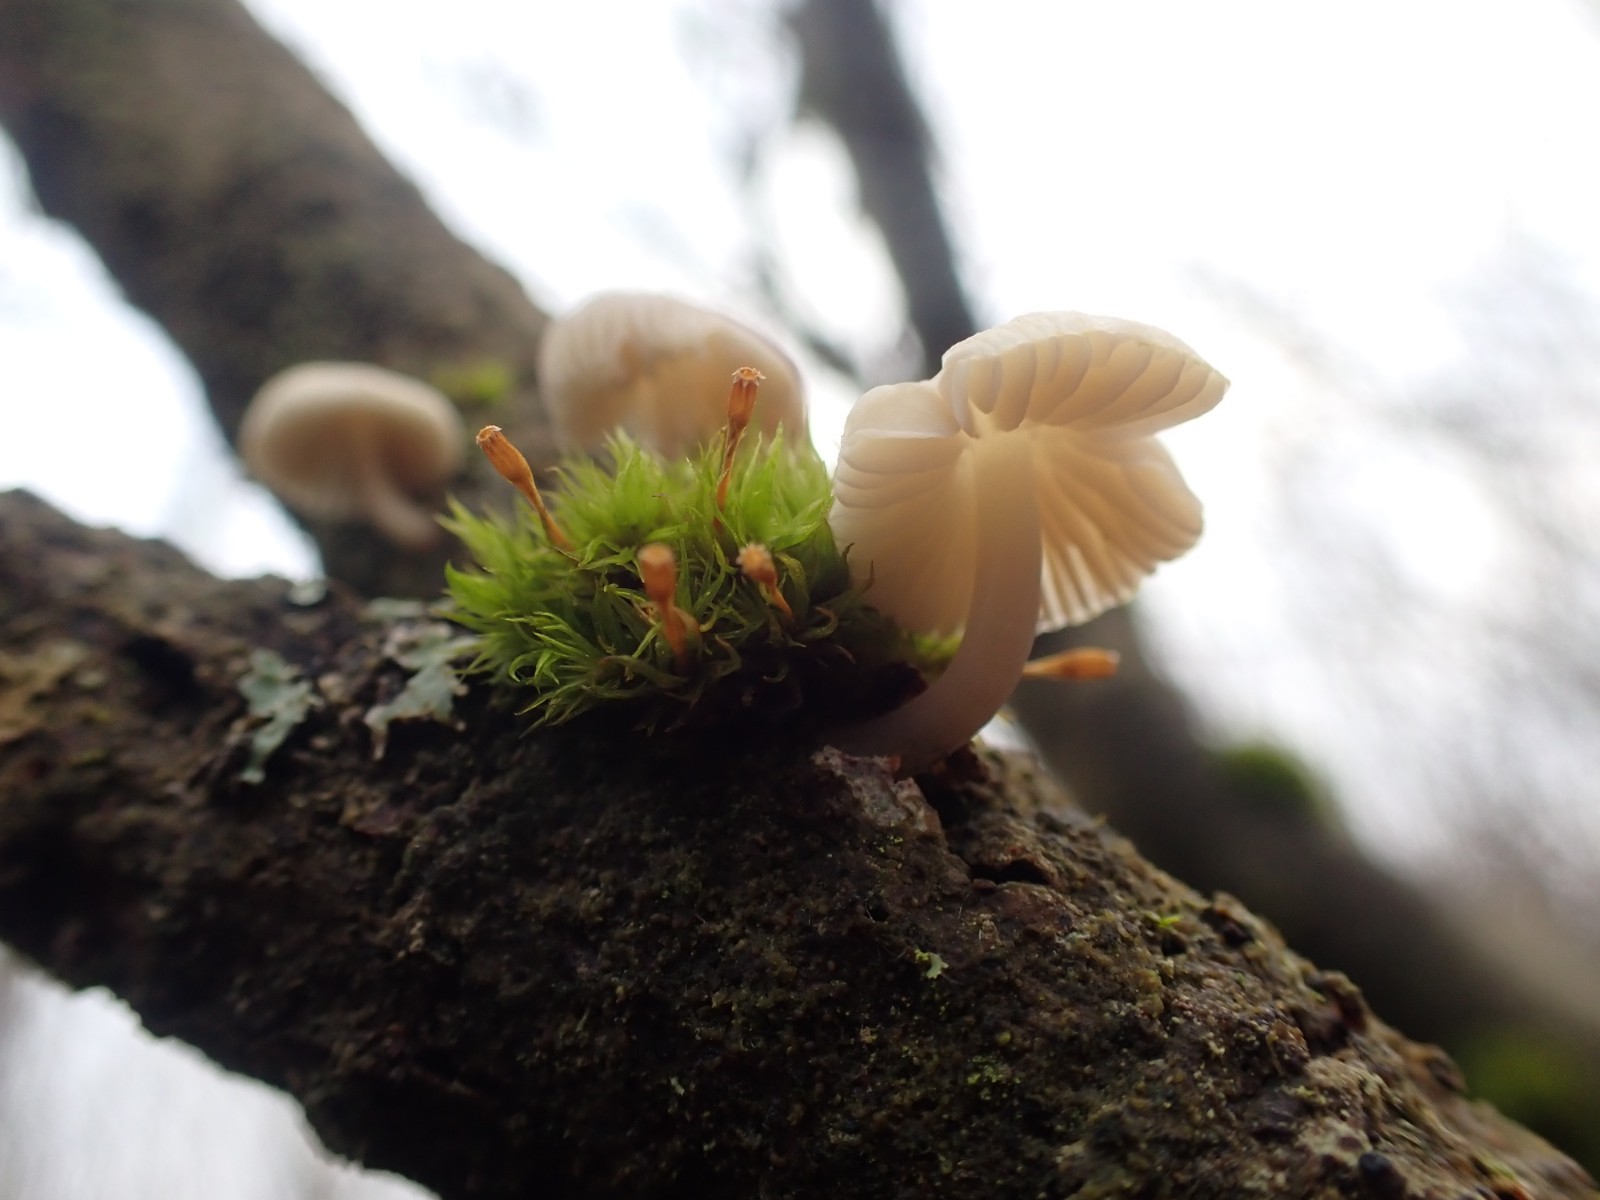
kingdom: Fungi
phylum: Basidiomycota
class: Agaricomycetes
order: Agaricales
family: Mycenaceae
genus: Mycena
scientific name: Mycena arcangeliana
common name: oliven-huesvamp
